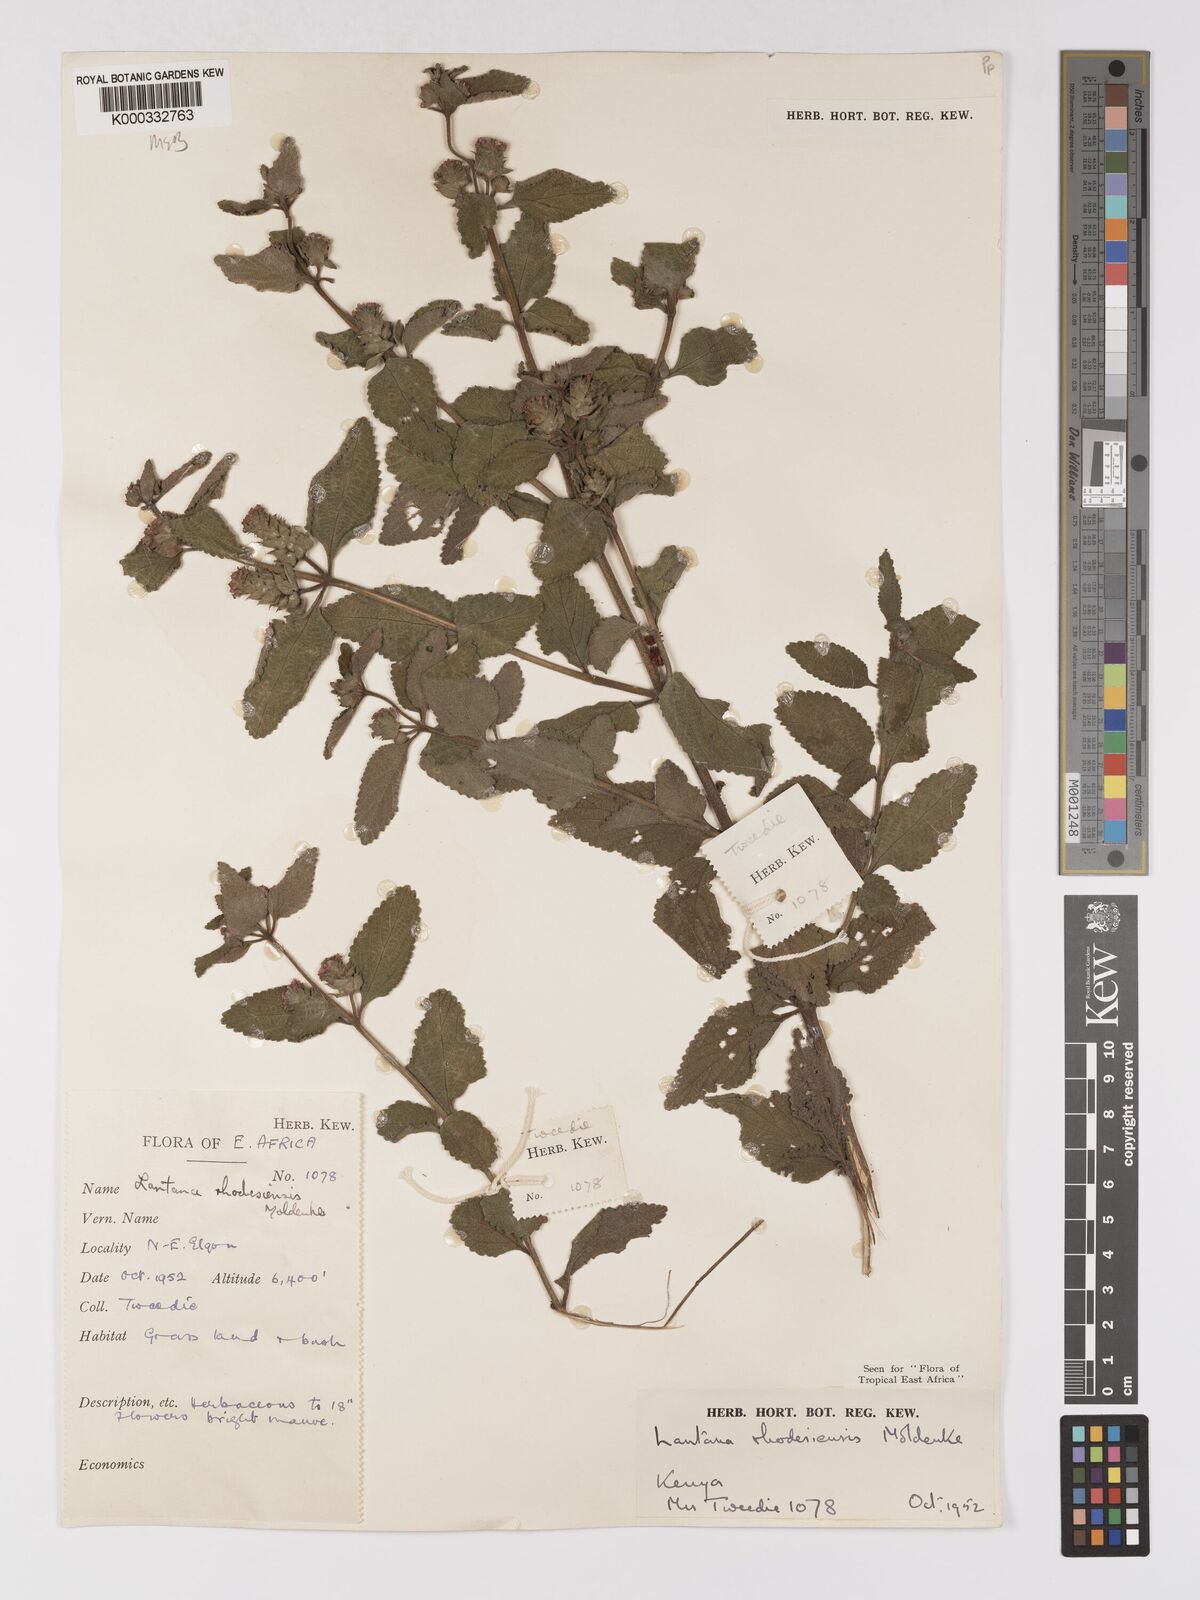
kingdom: Plantae
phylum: Tracheophyta
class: Magnoliopsida
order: Lamiales
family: Verbenaceae
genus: Lantana
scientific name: Lantana ukambensis
